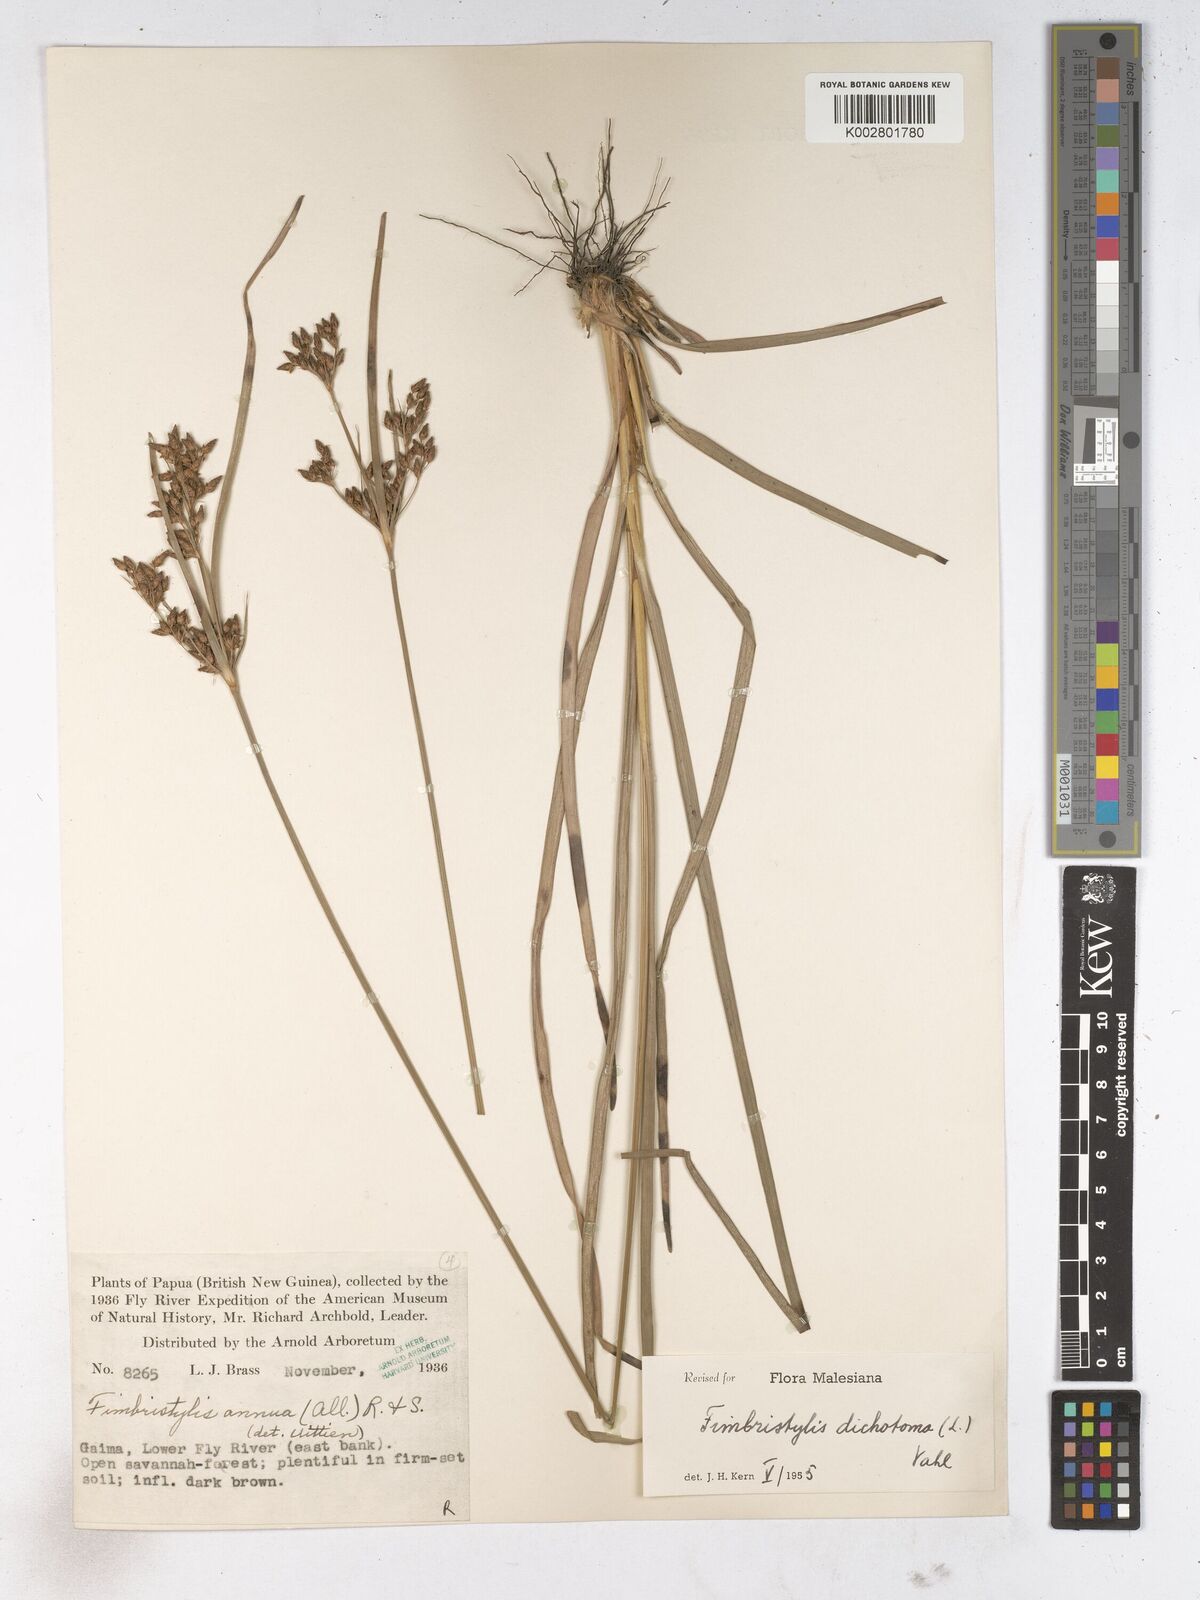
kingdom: Plantae
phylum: Tracheophyta
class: Liliopsida
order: Poales
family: Cyperaceae
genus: Fimbristylis
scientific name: Fimbristylis dichotoma
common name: Forked fimbry
